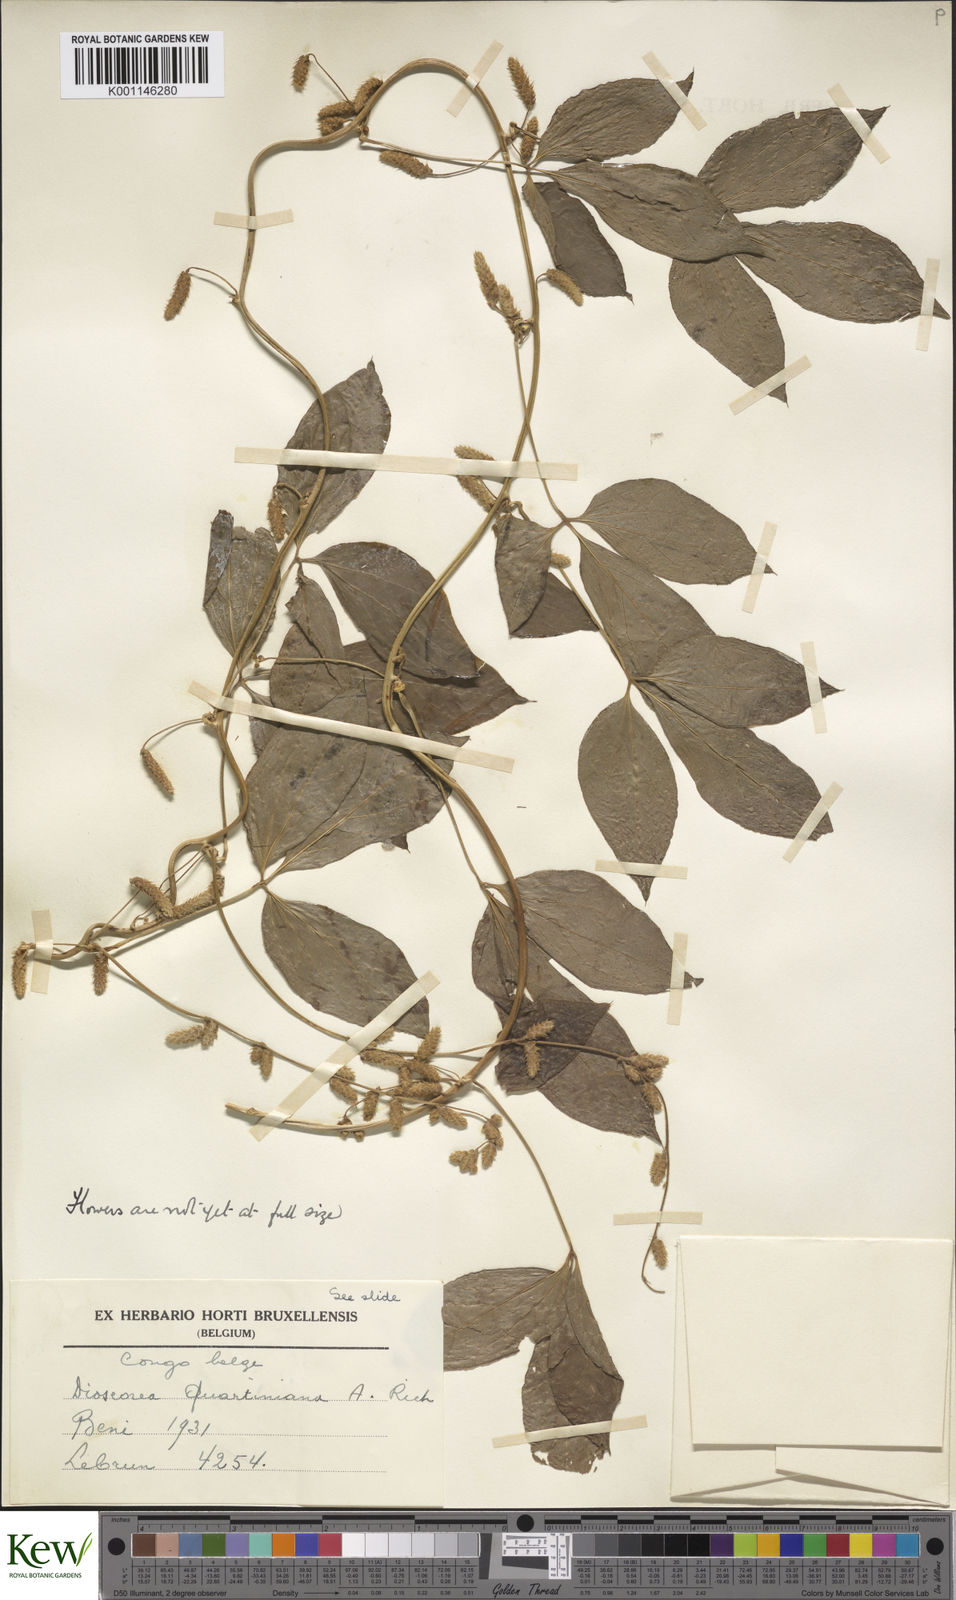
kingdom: Plantae
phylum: Tracheophyta
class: Liliopsida
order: Dioscoreales
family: Dioscoreaceae
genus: Dioscorea
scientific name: Dioscorea quartiniana
